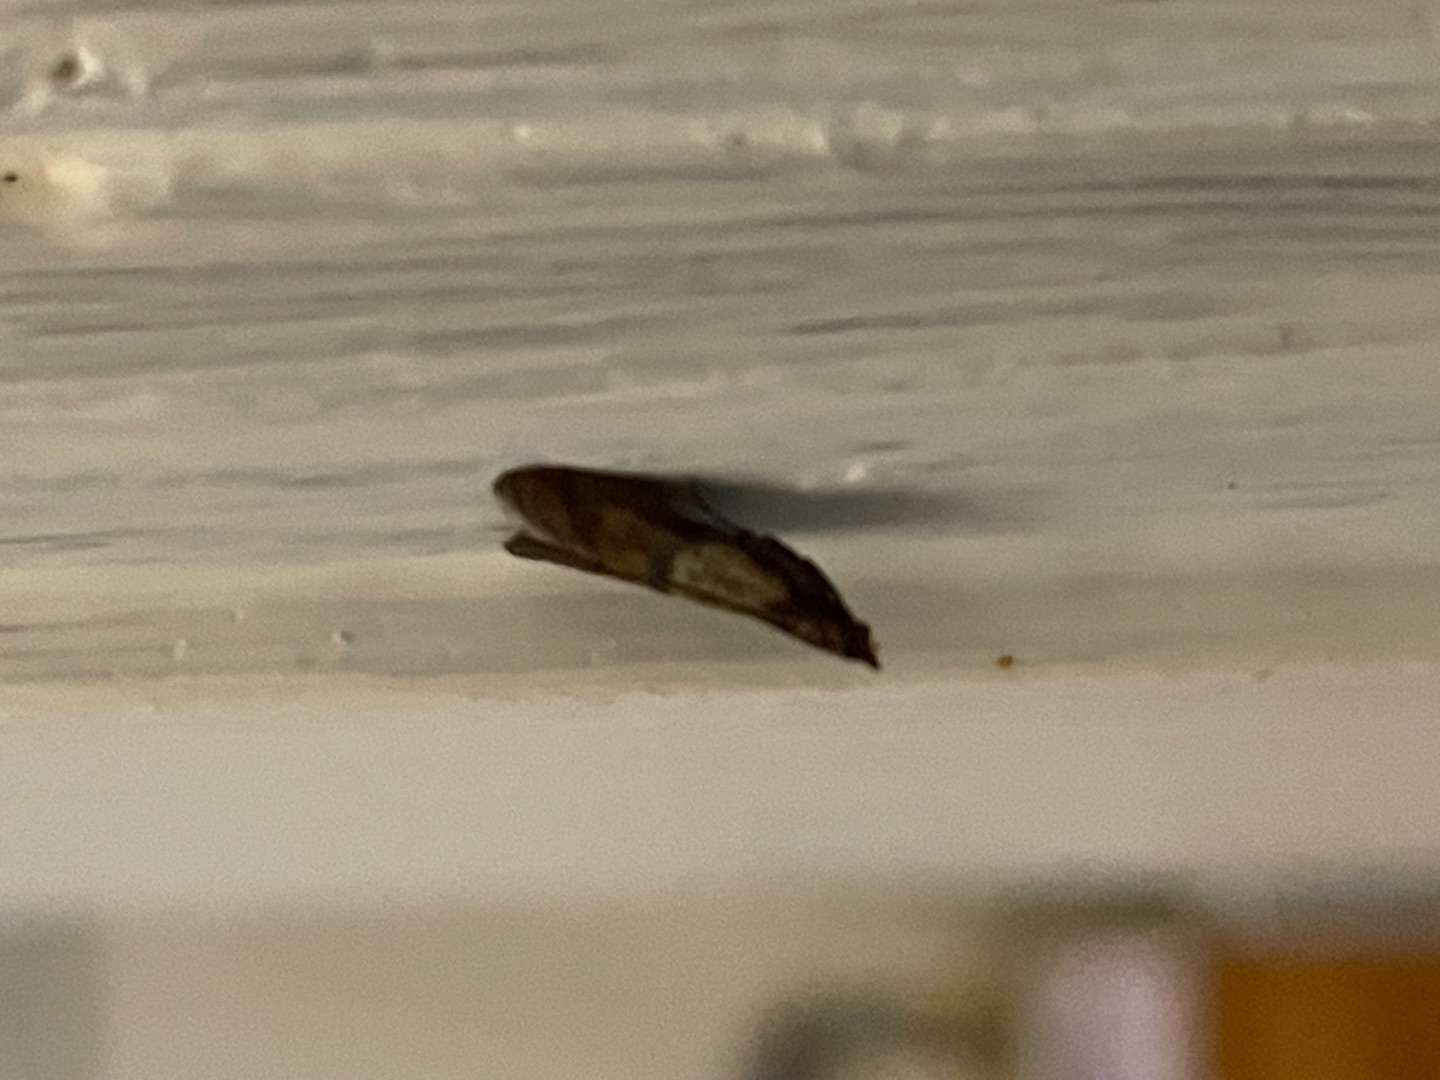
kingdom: Animalia
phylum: Arthropoda
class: Insecta
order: Lepidoptera
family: Pyralidae
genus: Plodia
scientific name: Plodia interpunctella
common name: Tofarvet frømøl
